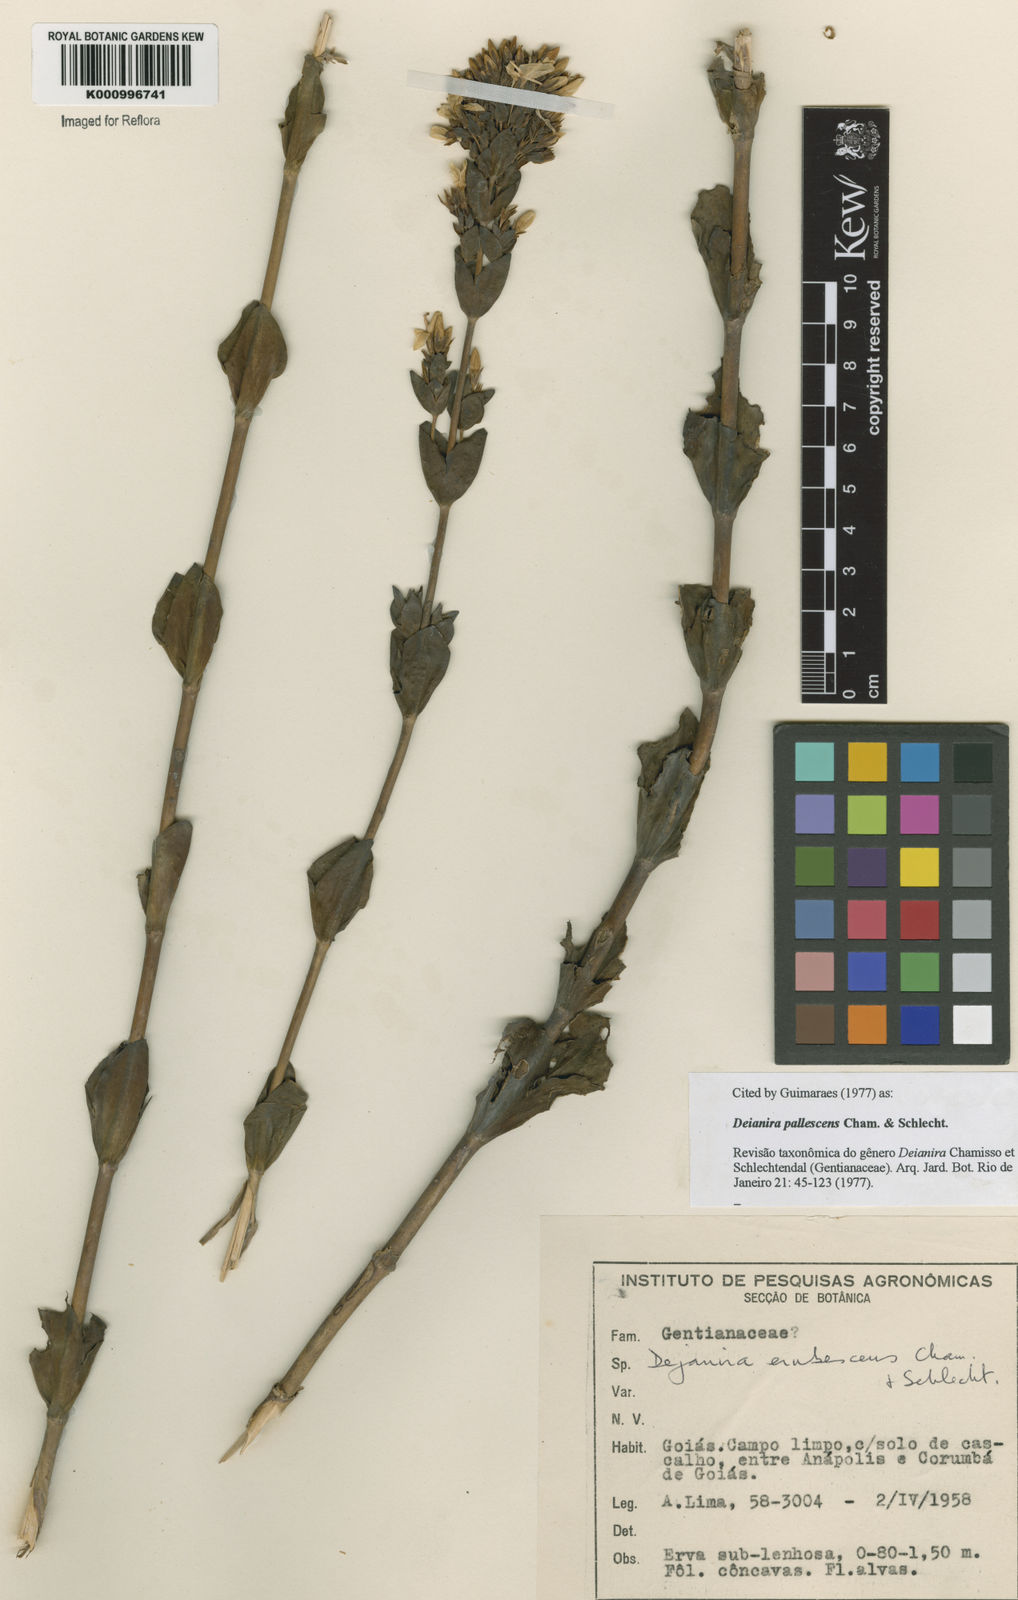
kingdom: Plantae
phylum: Tracheophyta
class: Magnoliopsida
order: Gentianales
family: Gentianaceae
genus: Deianira
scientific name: Deianira pallescens
